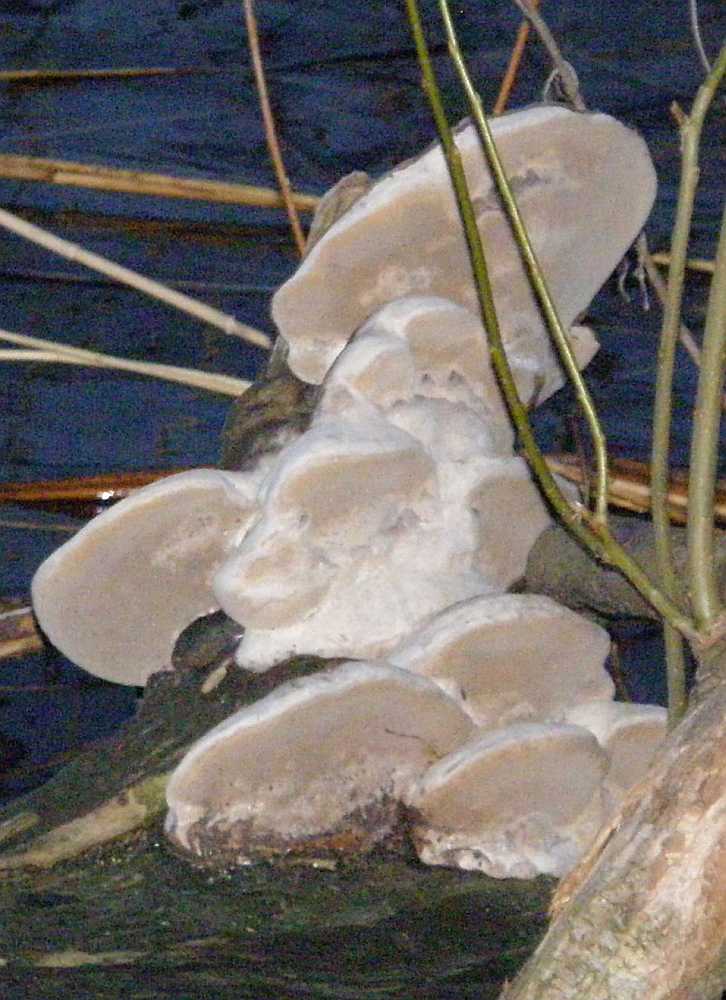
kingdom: Fungi
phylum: Basidiomycota
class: Agaricomycetes
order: Hymenochaetales
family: Hymenochaetaceae
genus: Phellinus
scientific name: Phellinus igniarius
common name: almindelig ildporesvamp
